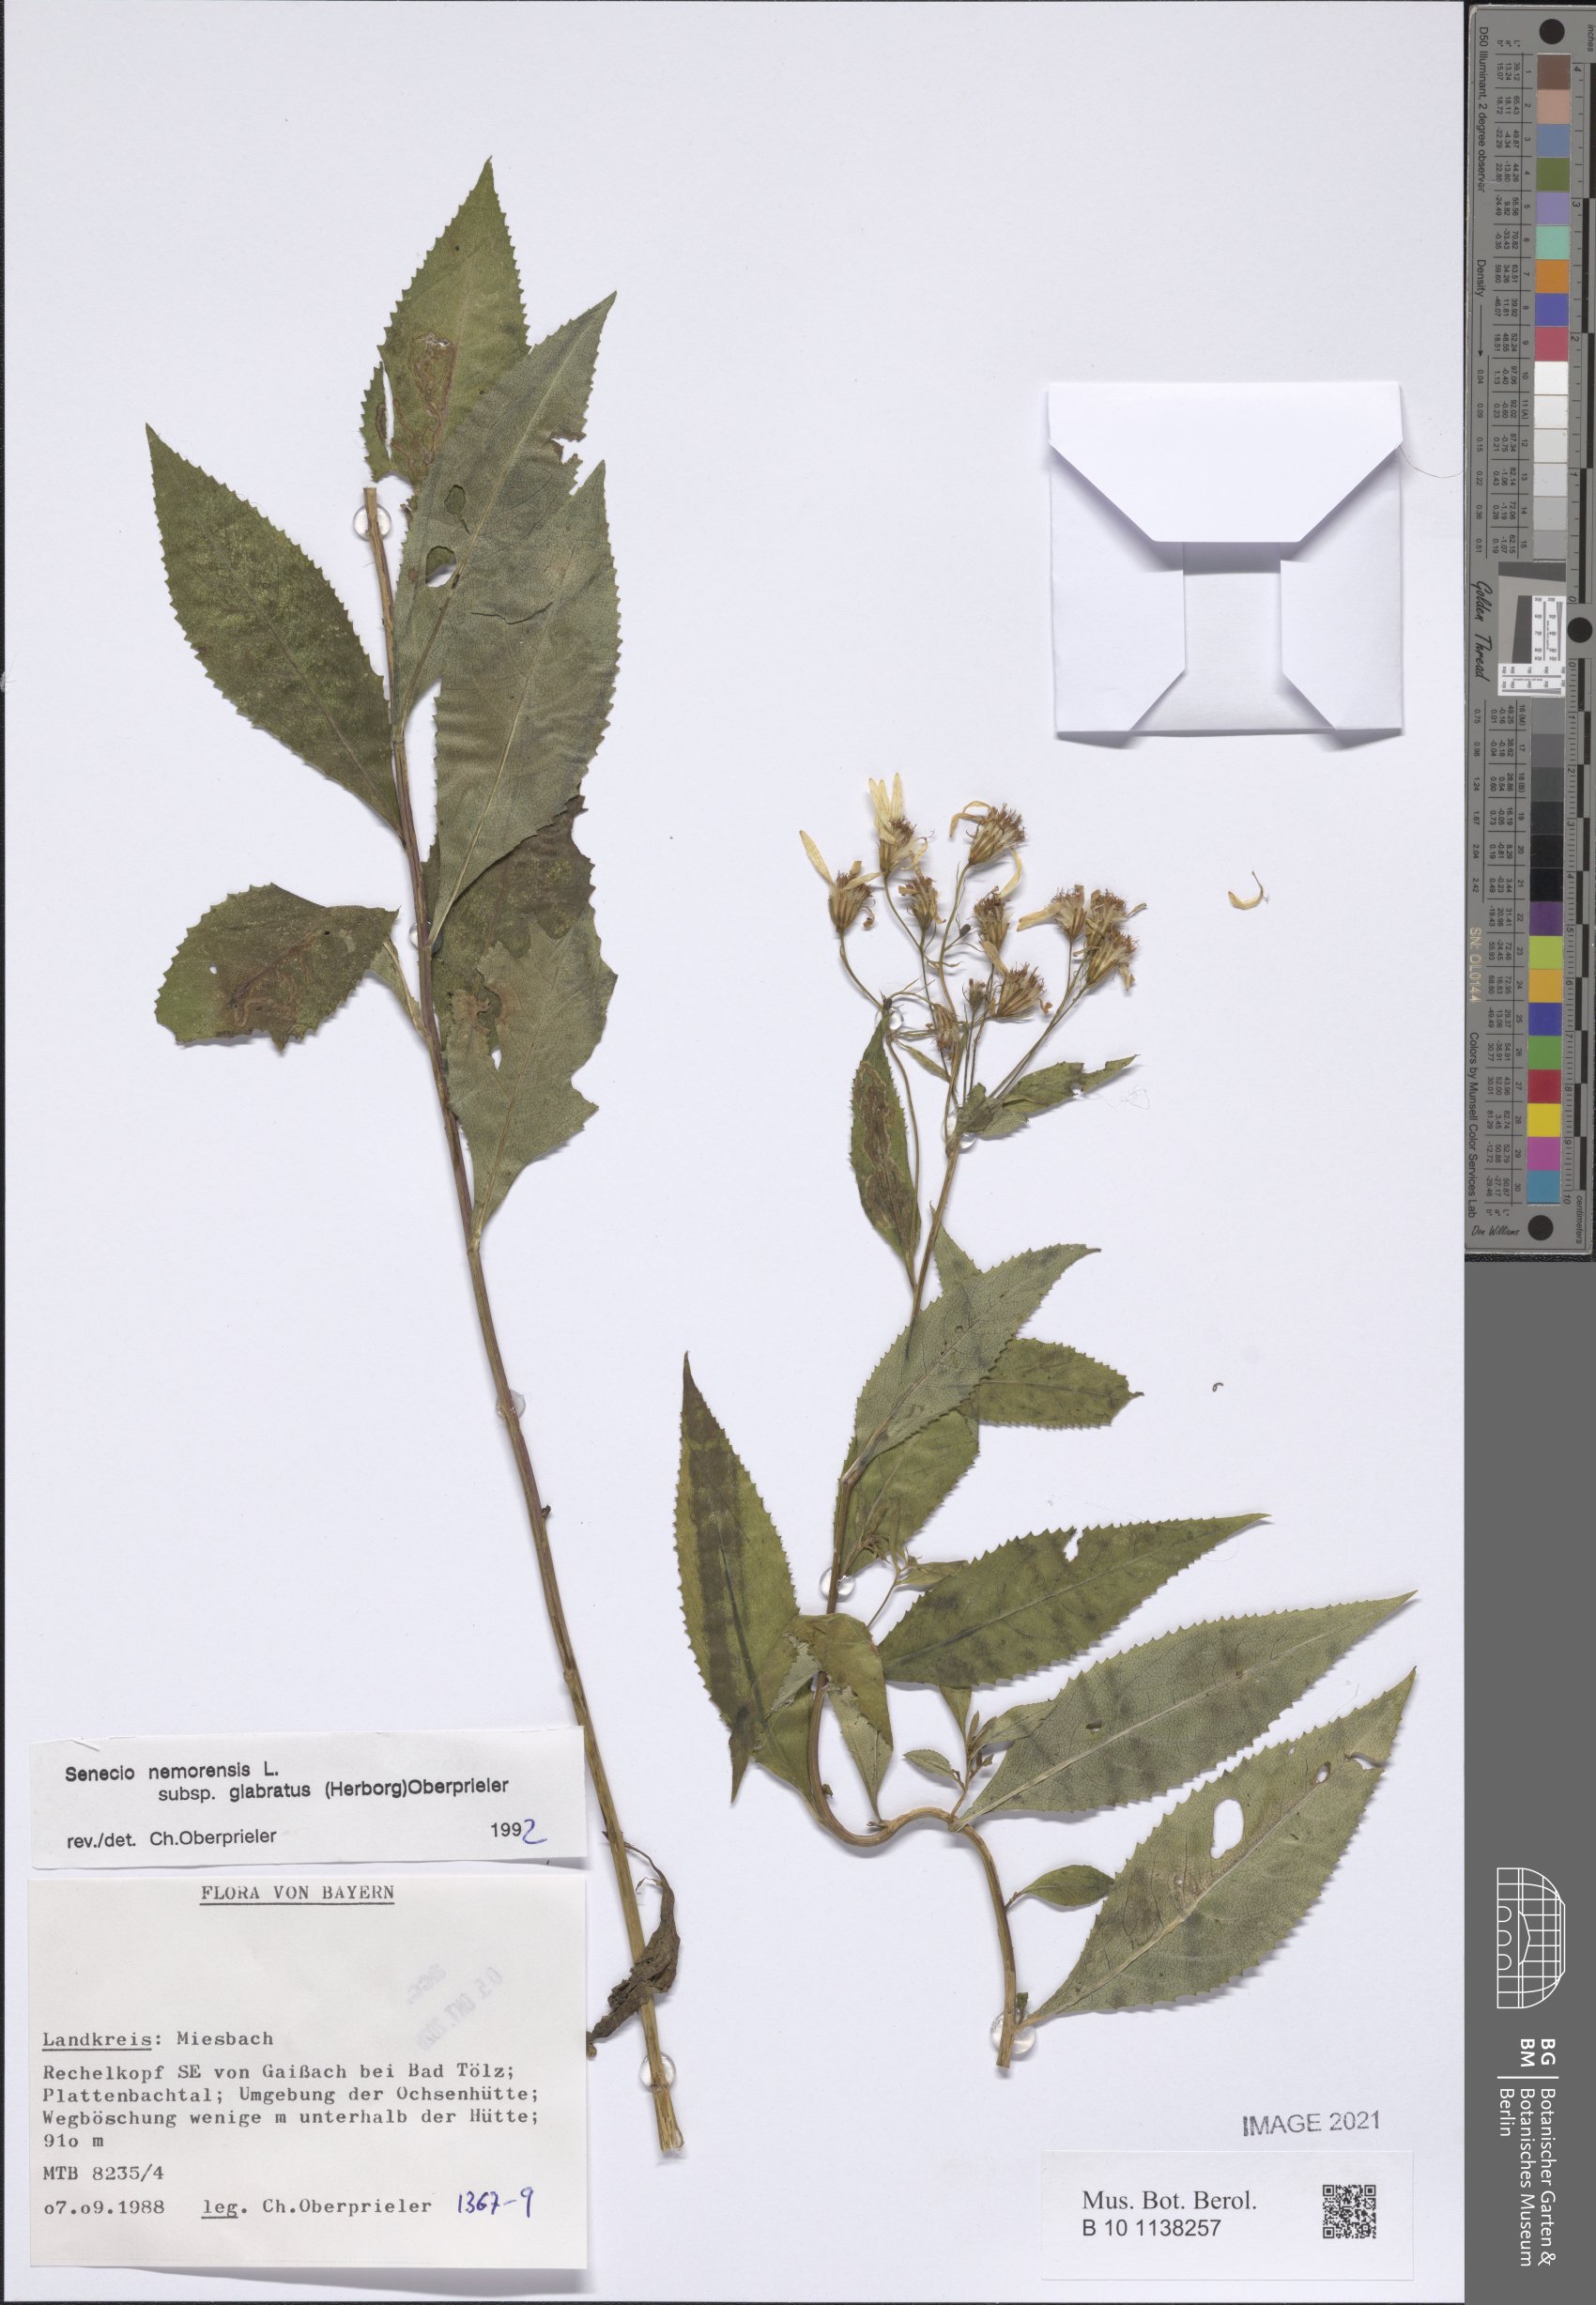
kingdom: Plantae
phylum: Tracheophyta
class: Magnoliopsida
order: Asterales
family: Asteraceae
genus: Senecio
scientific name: Senecio germanicus
